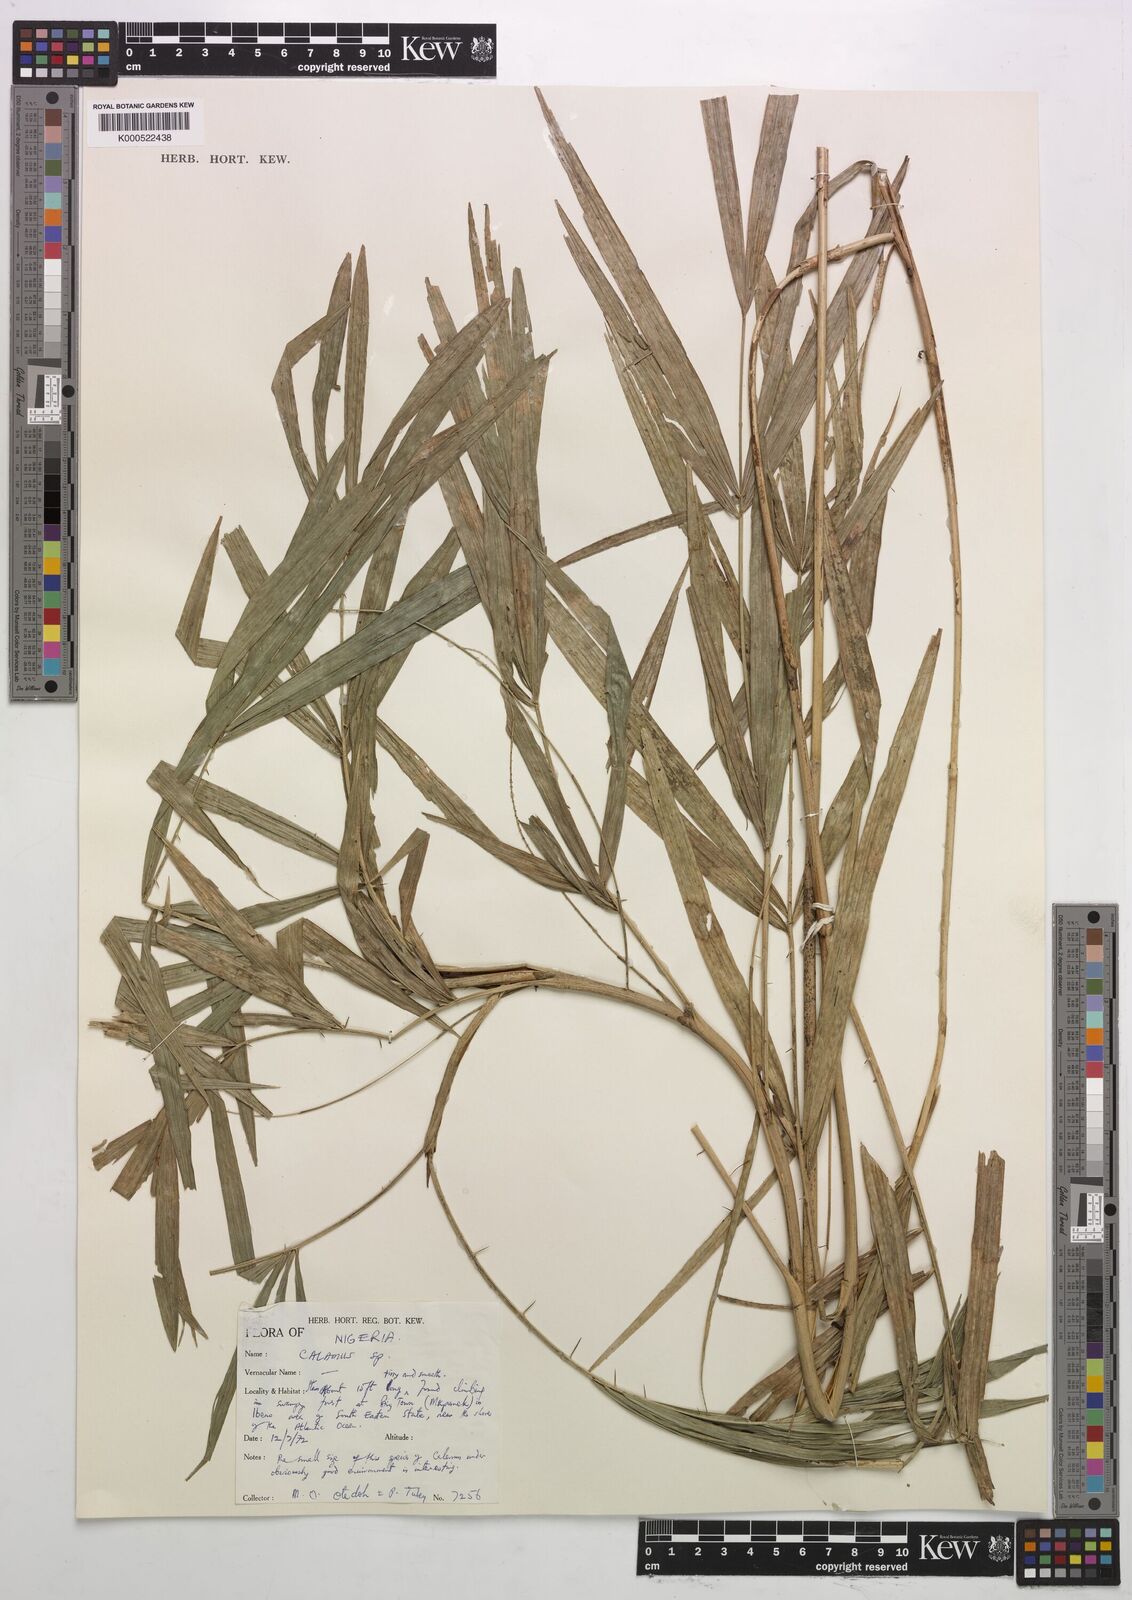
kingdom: Plantae
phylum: Tracheophyta
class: Liliopsida
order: Arecales
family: Arecaceae
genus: Calamus
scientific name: Calamus
